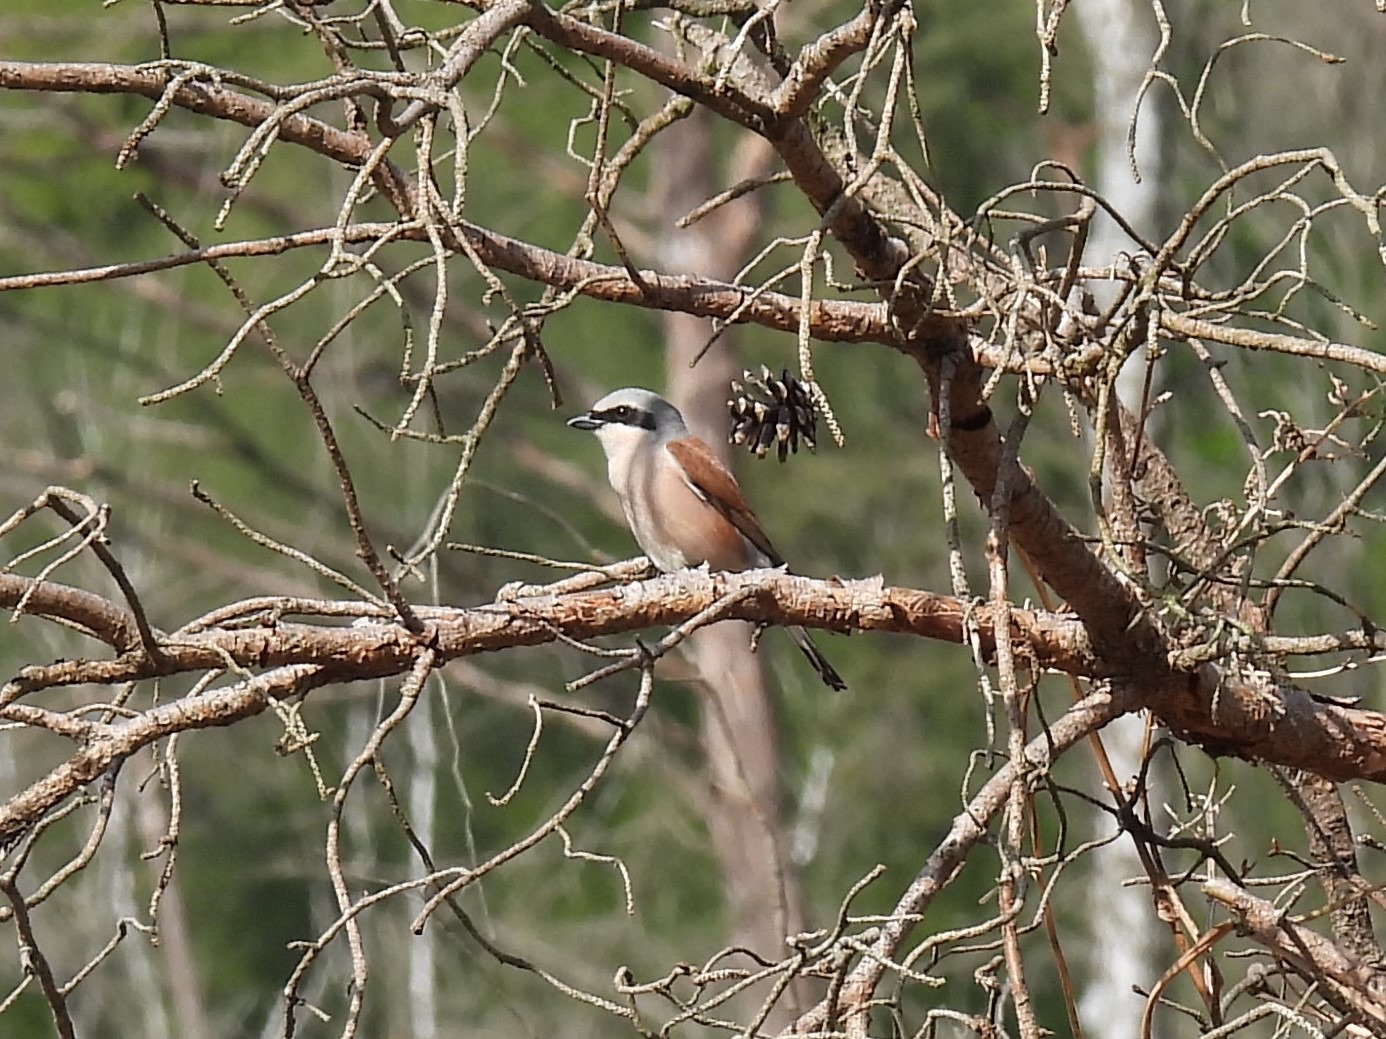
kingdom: Animalia
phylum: Chordata
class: Aves
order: Passeriformes
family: Laniidae
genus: Lanius
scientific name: Lanius collurio
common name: Rødrygget tornskade
